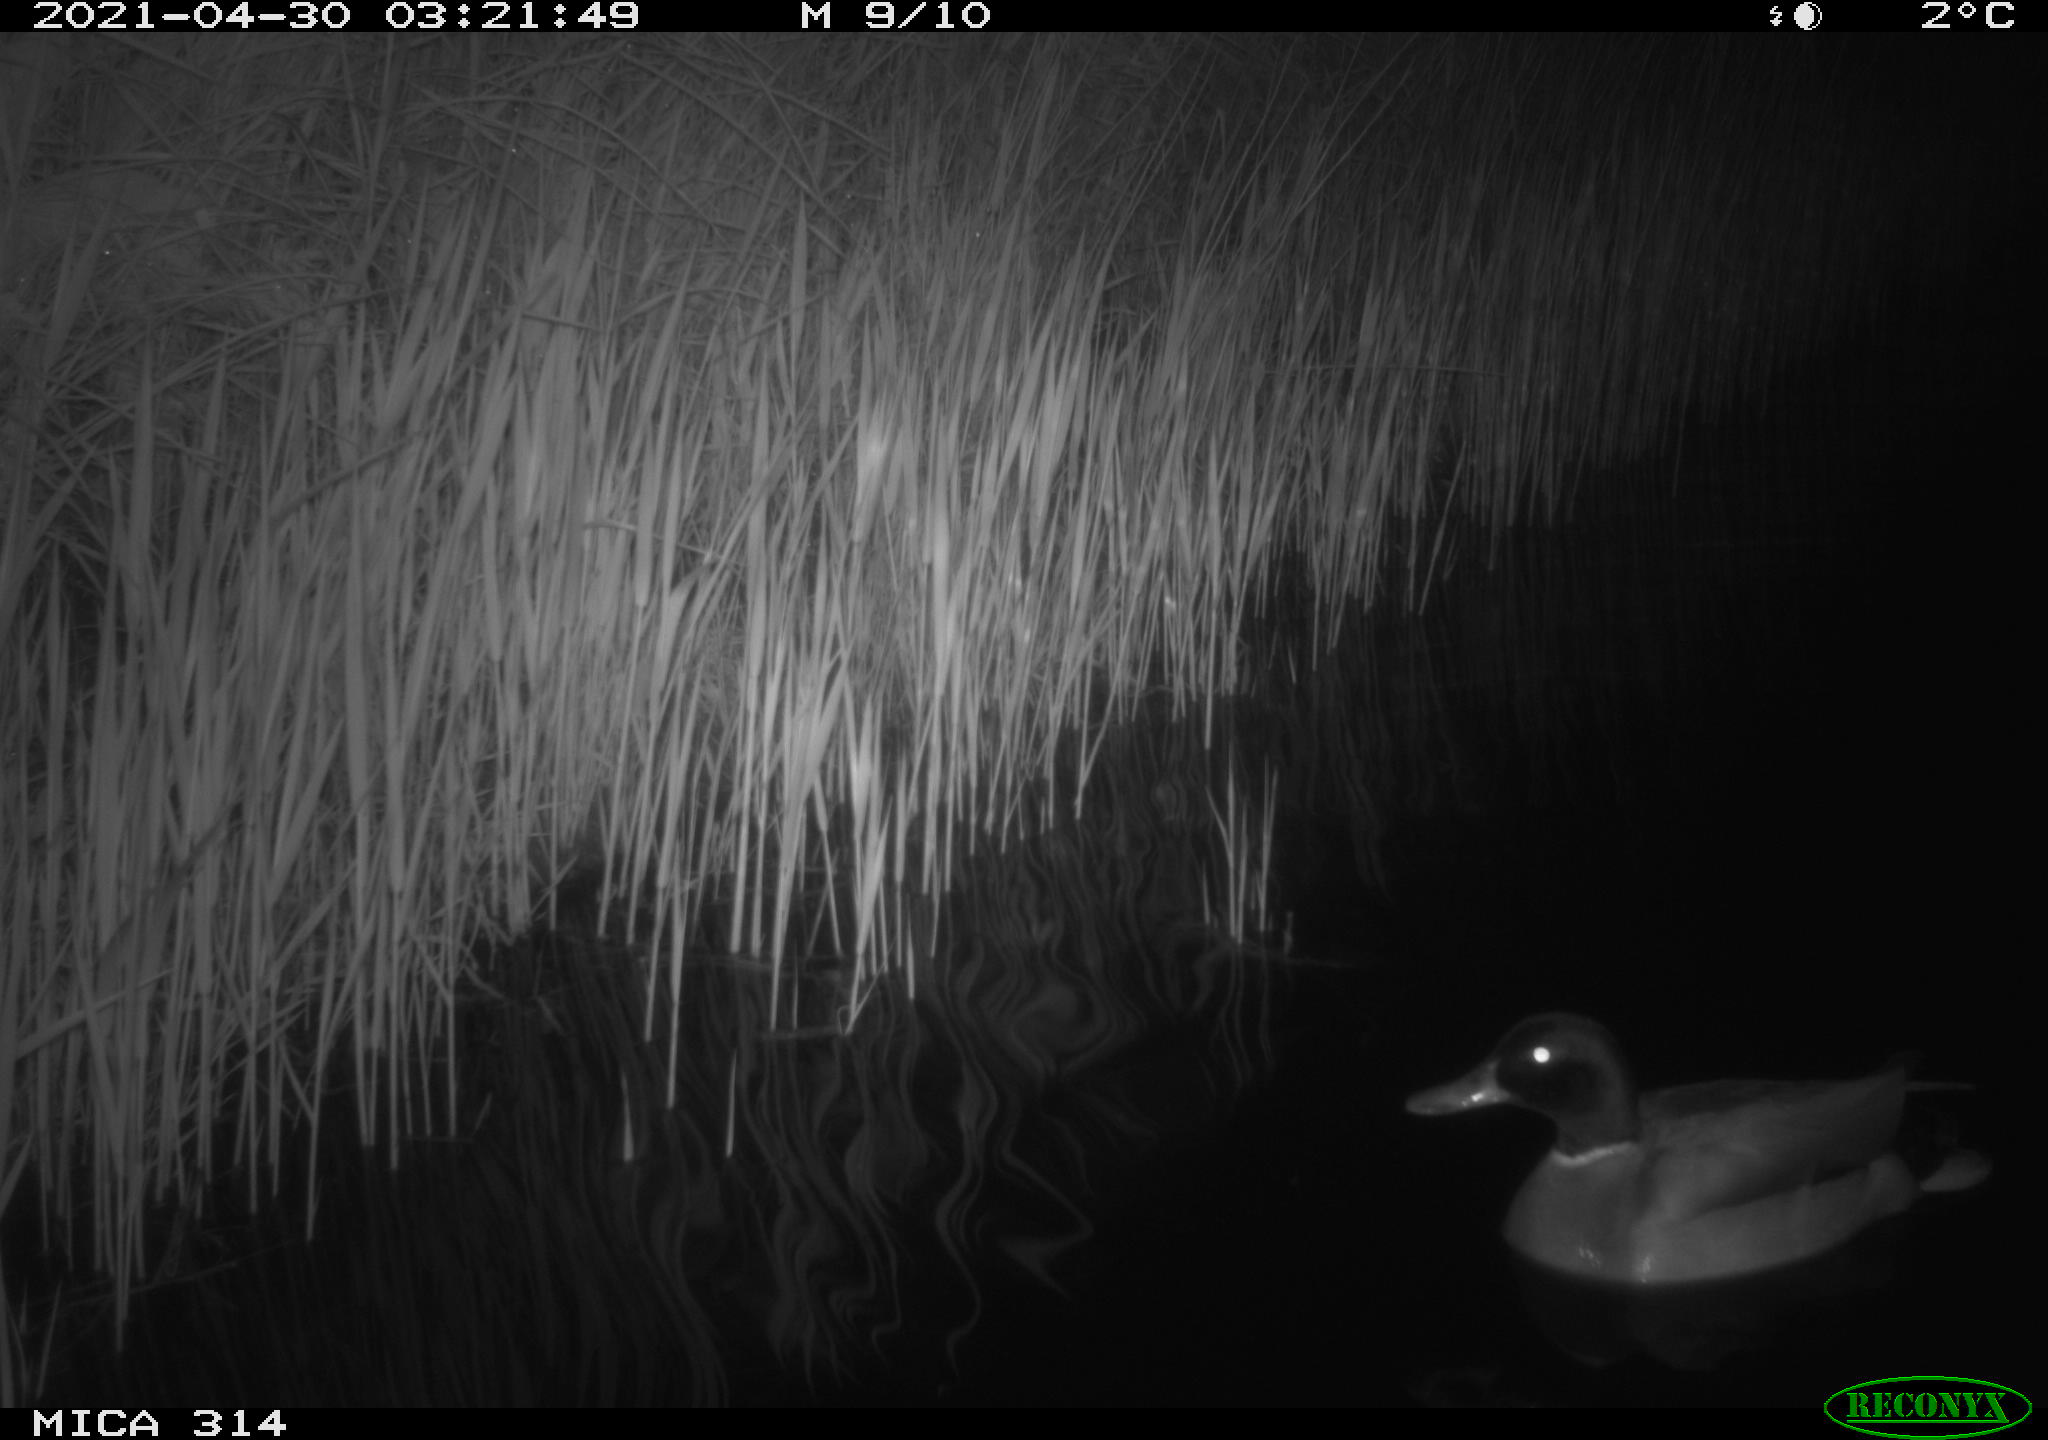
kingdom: Animalia
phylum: Chordata
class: Aves
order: Anseriformes
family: Anatidae
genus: Anas
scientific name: Anas platyrhynchos
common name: Mallard
